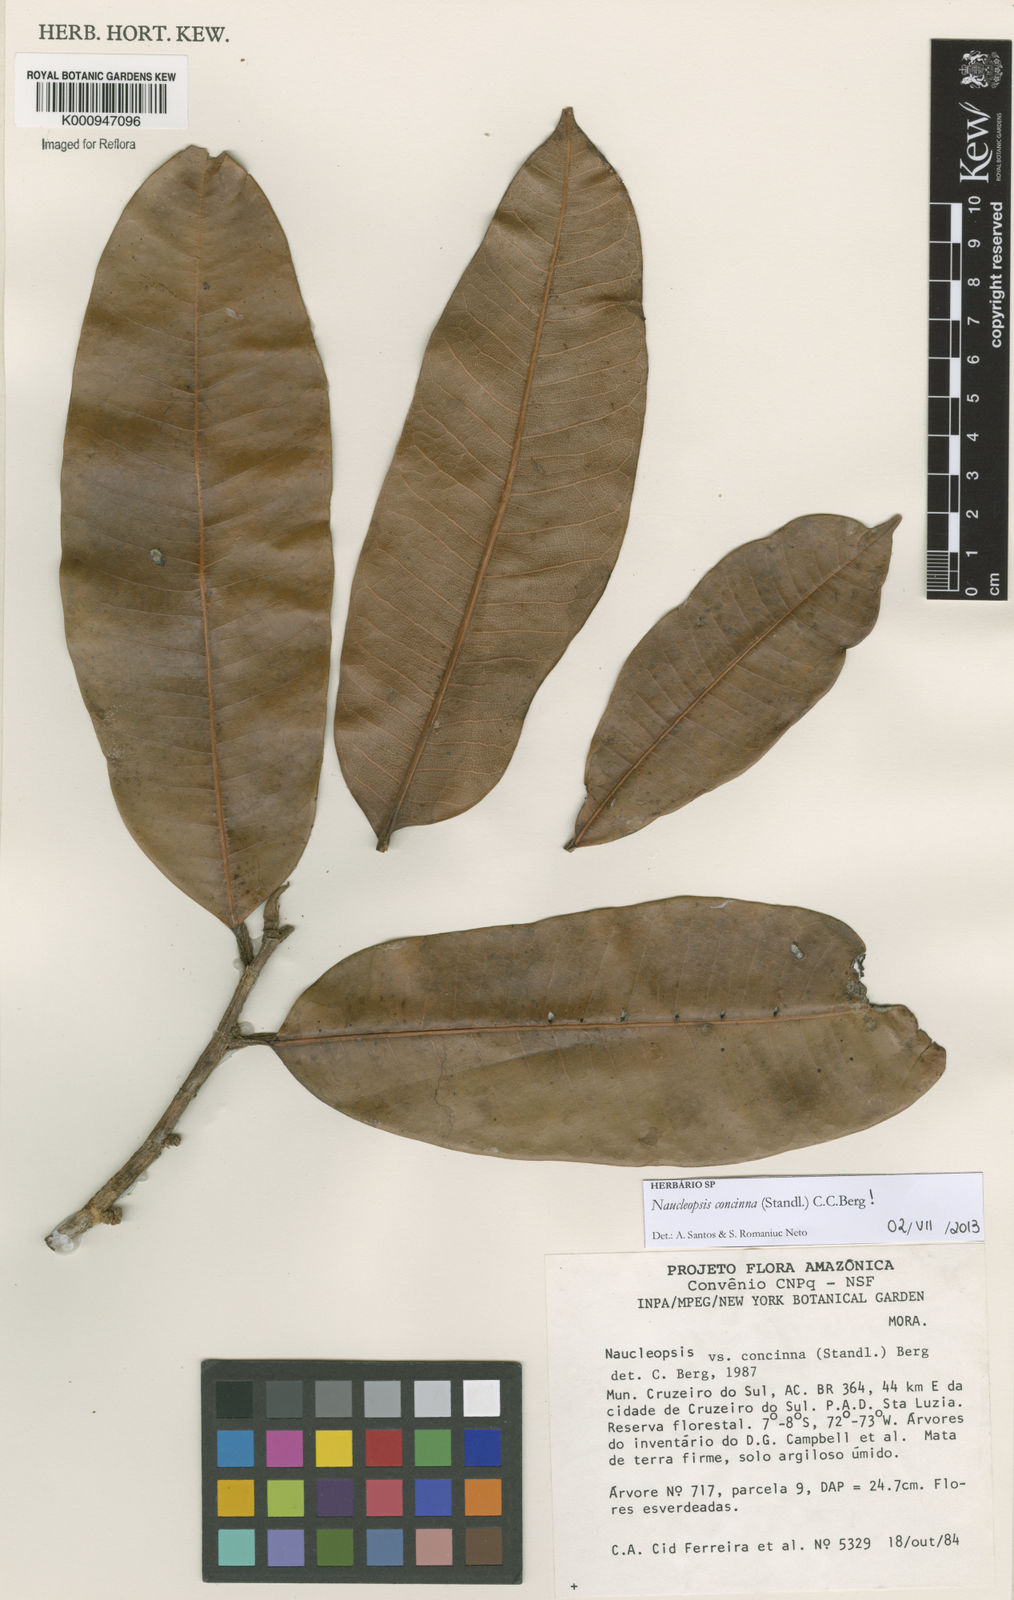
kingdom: Plantae
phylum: Tracheophyta
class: Magnoliopsida
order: Rosales
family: Moraceae
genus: Naucleopsis
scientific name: Naucleopsis concinna
